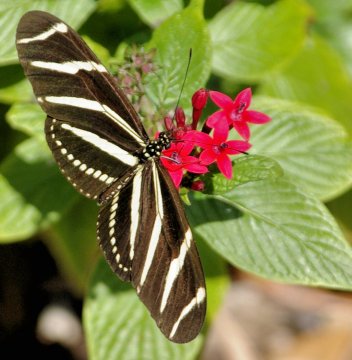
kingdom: Animalia
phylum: Arthropoda
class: Insecta
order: Lepidoptera
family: Nymphalidae
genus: Heliconius
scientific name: Heliconius charithonia
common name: Zebra Longwing
